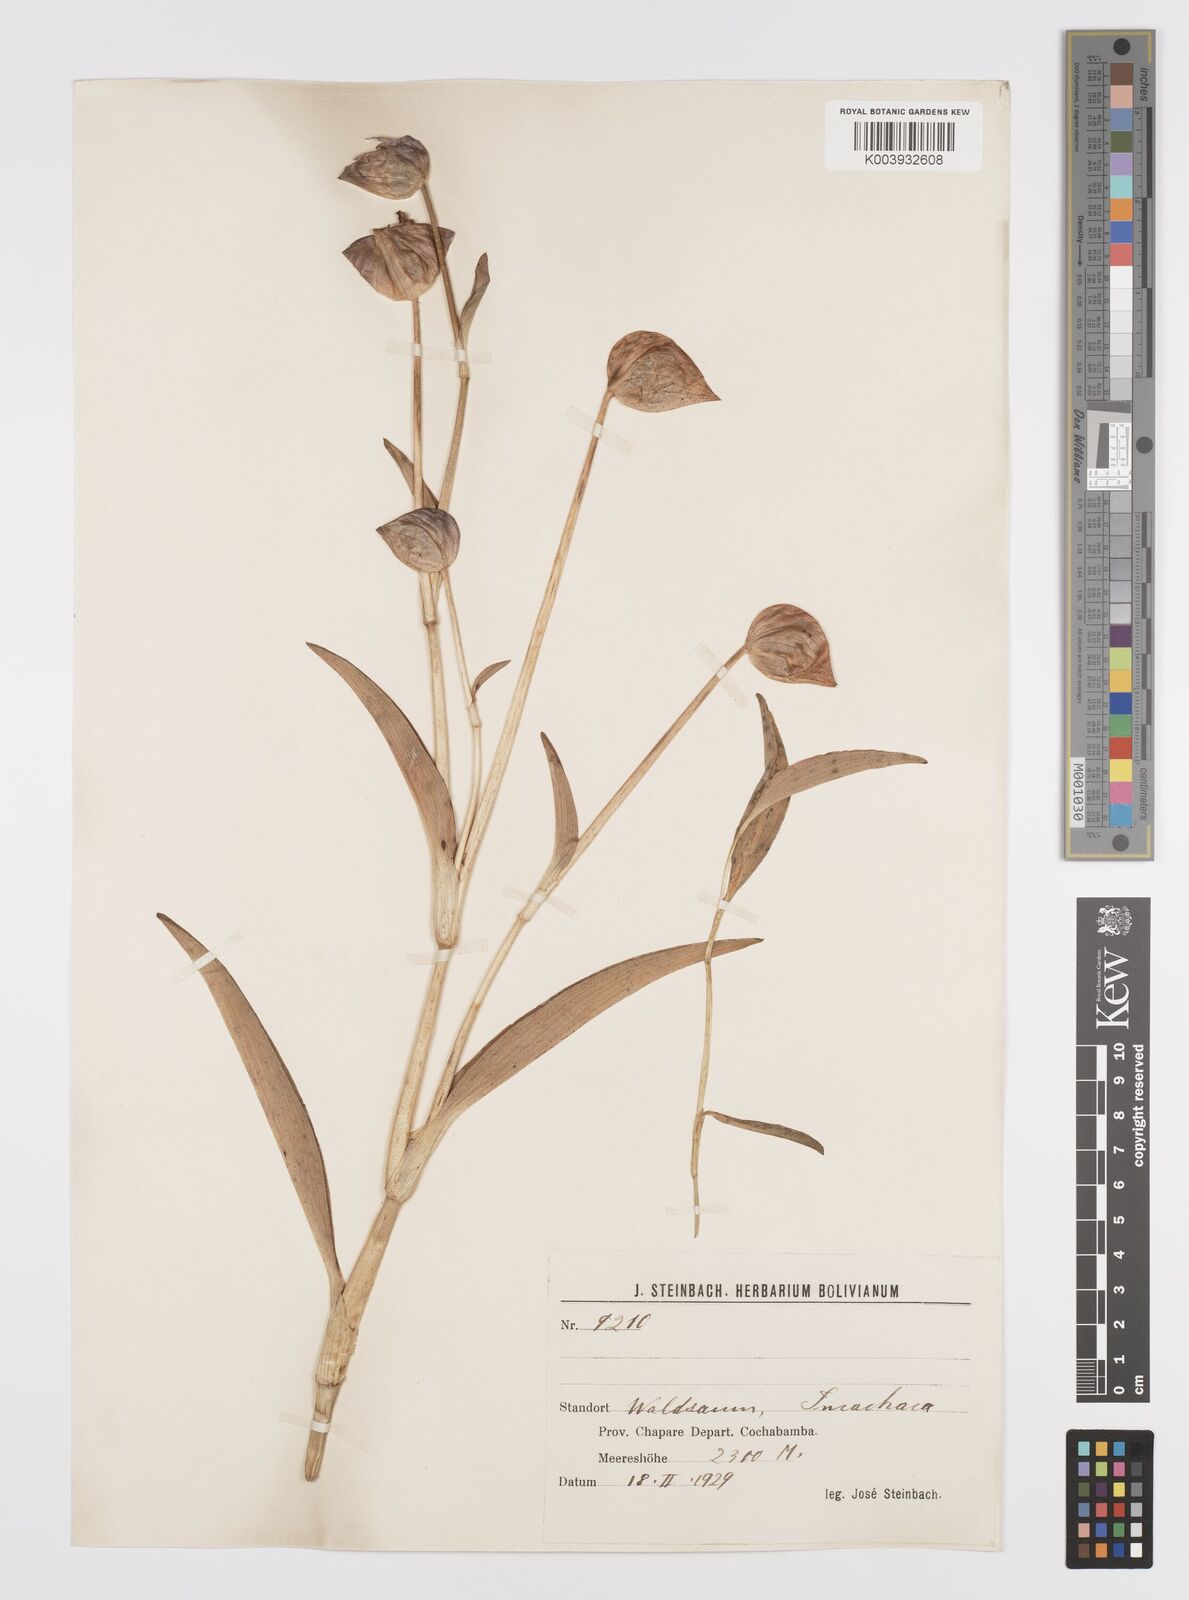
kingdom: Plantae
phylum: Tracheophyta
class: Liliopsida
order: Commelinales
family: Commelinaceae
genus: Commelina
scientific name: Commelina elliptica
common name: Peruvian spiderwort
